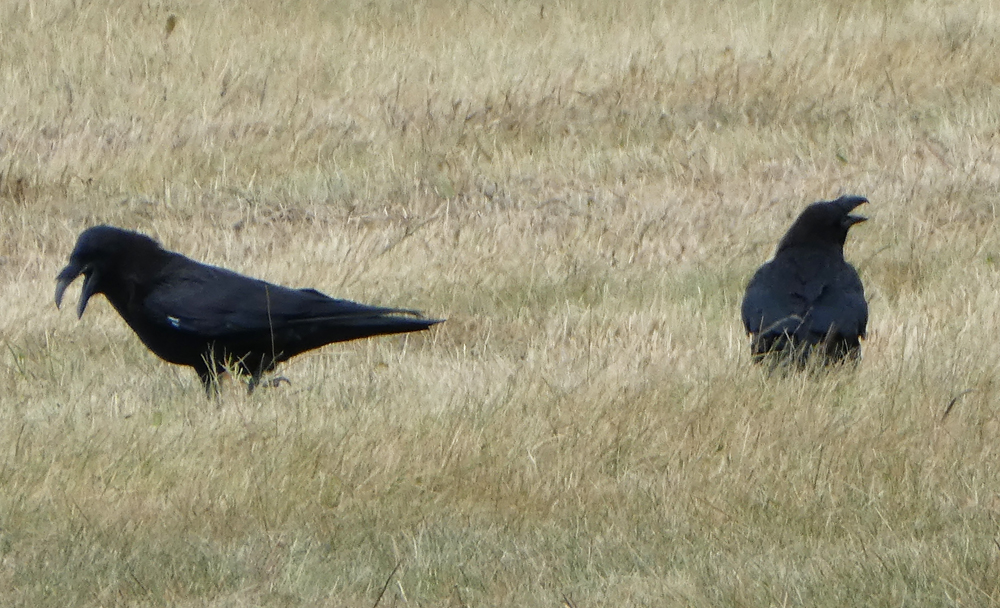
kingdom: Animalia
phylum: Chordata
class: Aves
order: Passeriformes
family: Corvidae
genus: Corvus
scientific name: Corvus corax
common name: Common raven
